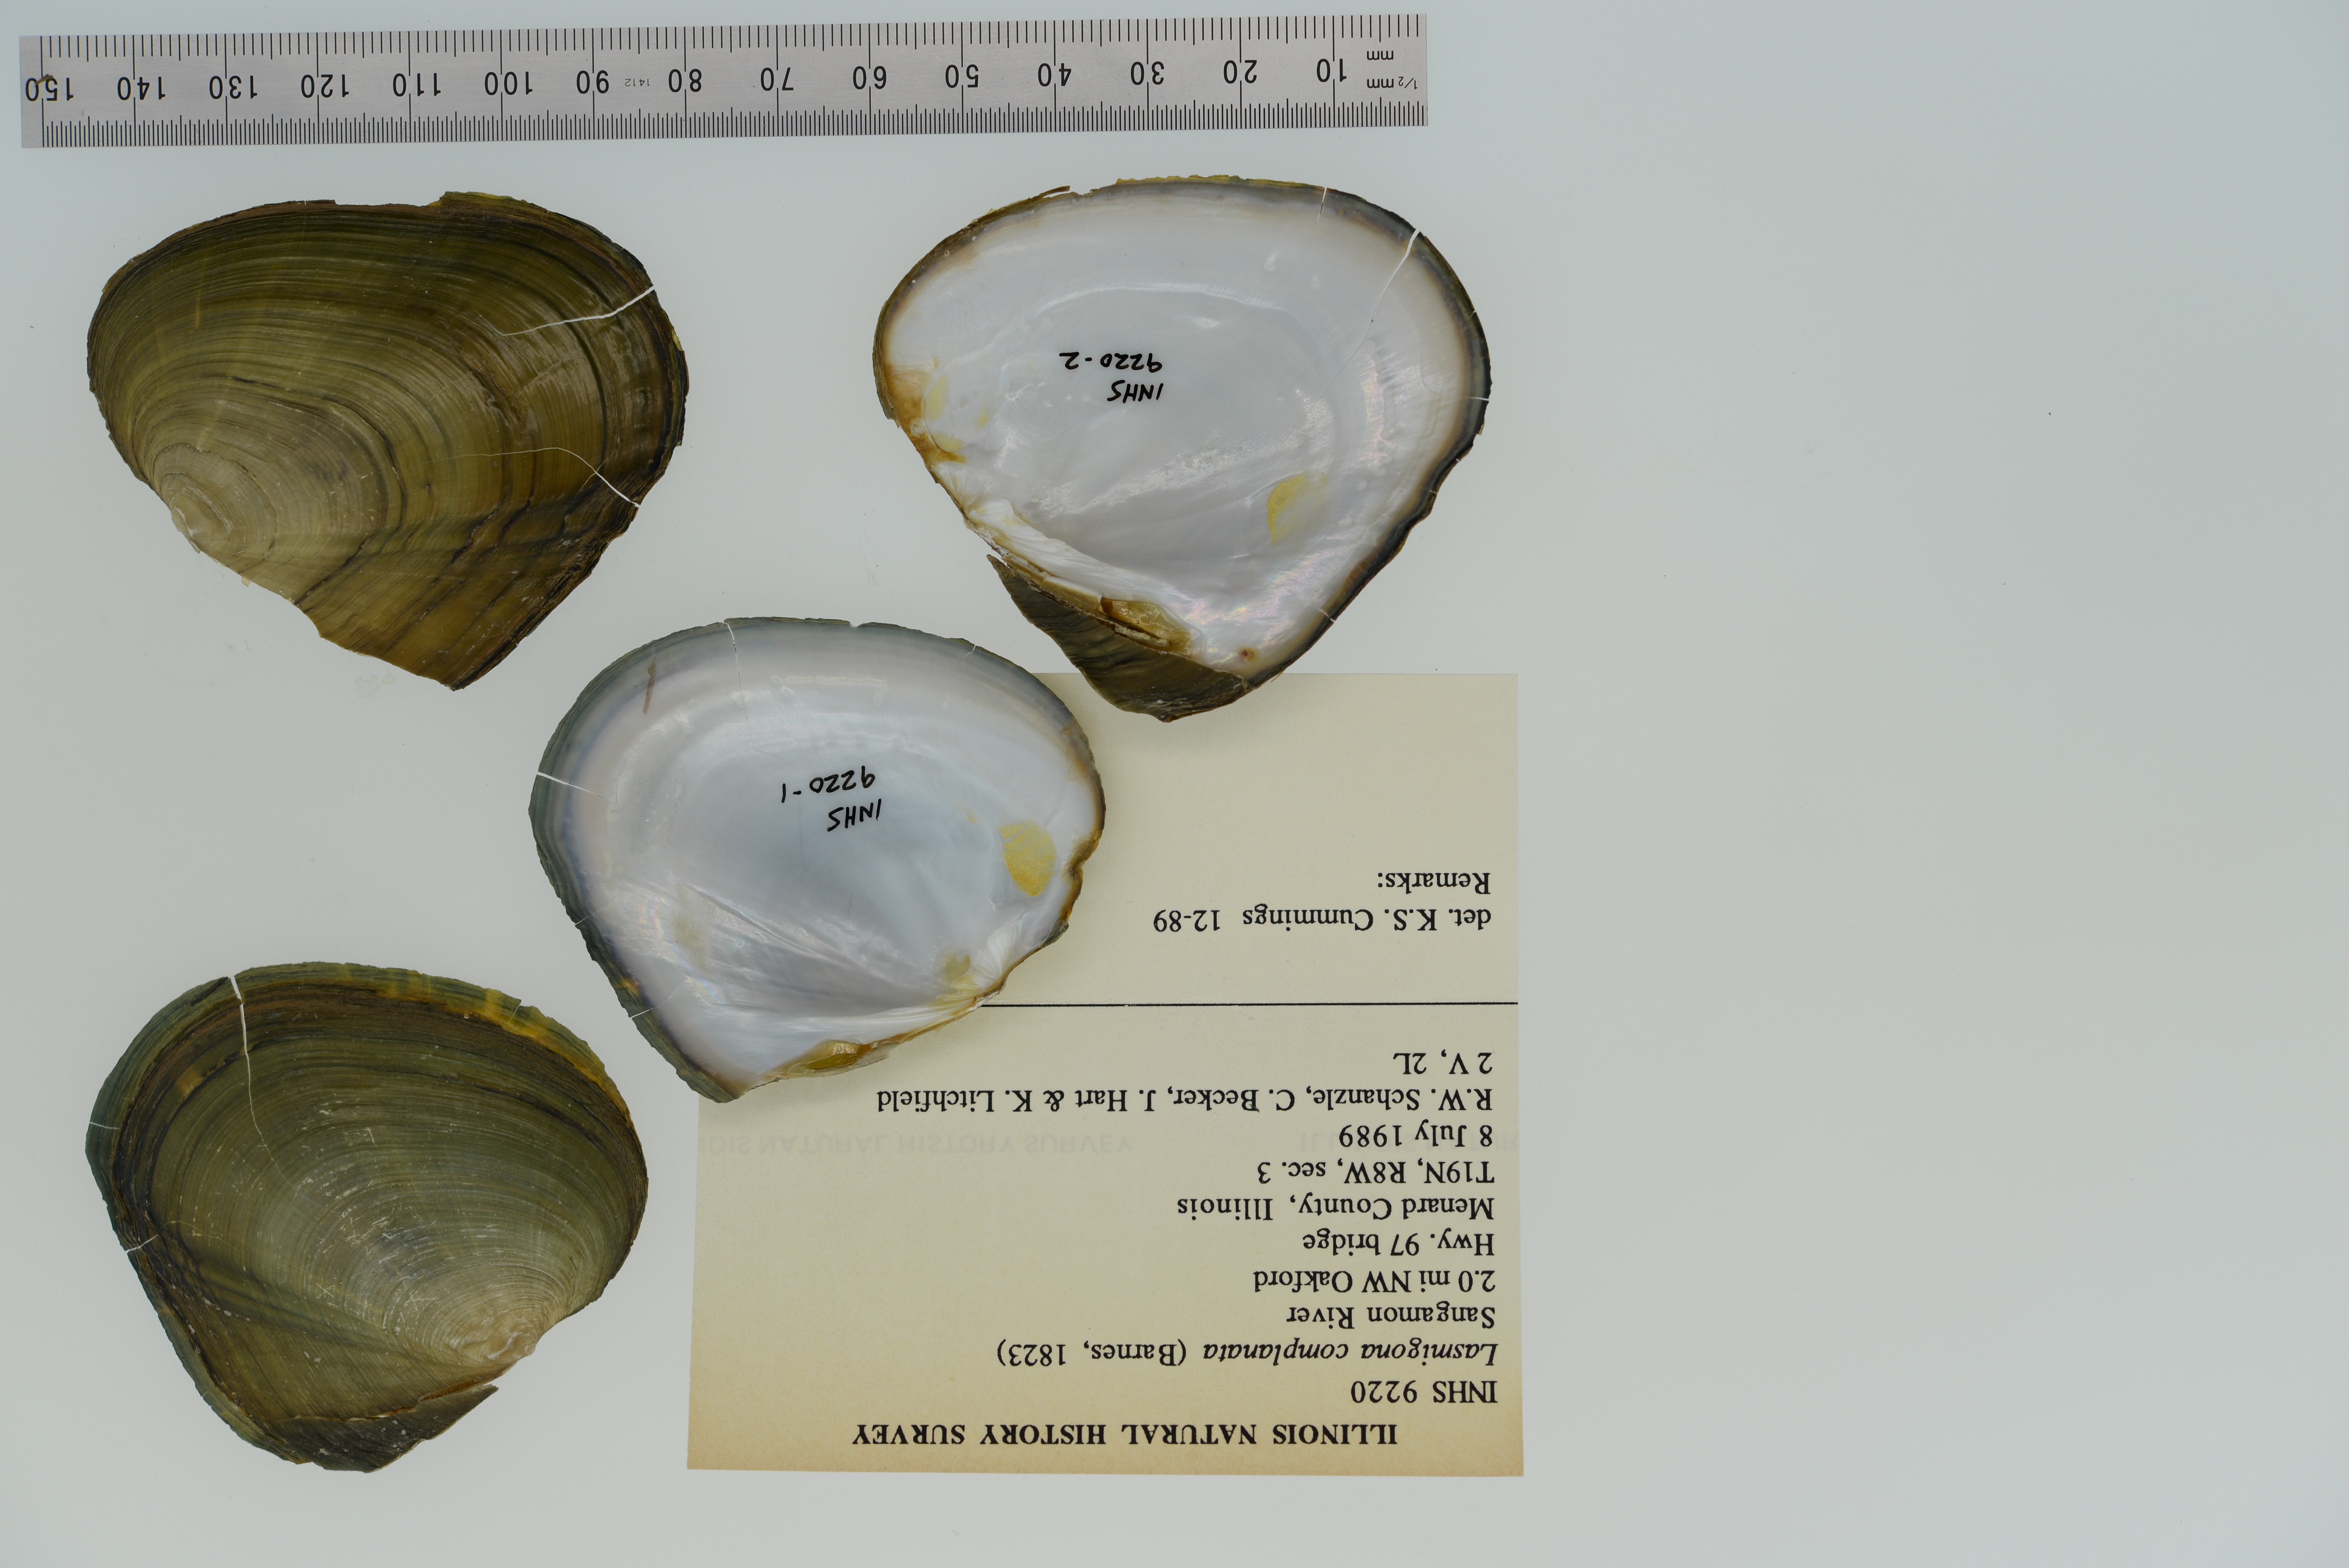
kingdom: Animalia
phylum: Mollusca
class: Bivalvia
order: Unionida
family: Unionidae
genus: Lasmigona
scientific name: Lasmigona complanata
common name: White heelsplitter
